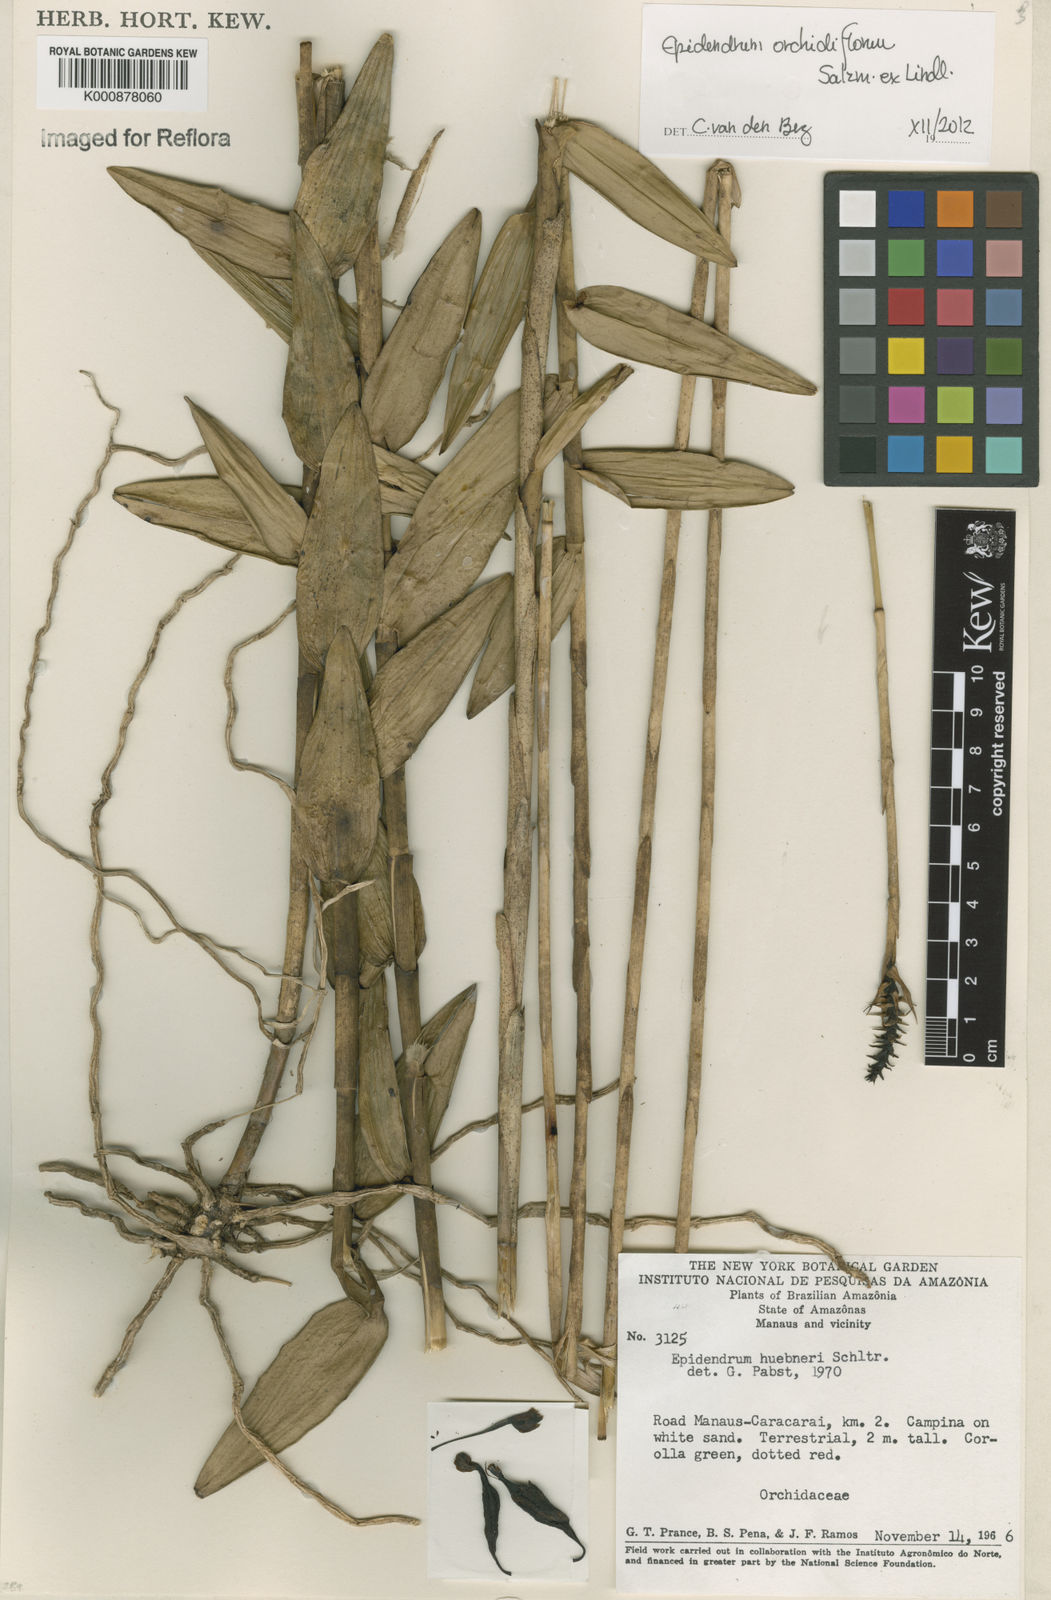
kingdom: Plantae
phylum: Tracheophyta
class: Liliopsida
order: Asparagales
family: Orchidaceae
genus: Epidendrum
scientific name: Epidendrum orchidiflorum
